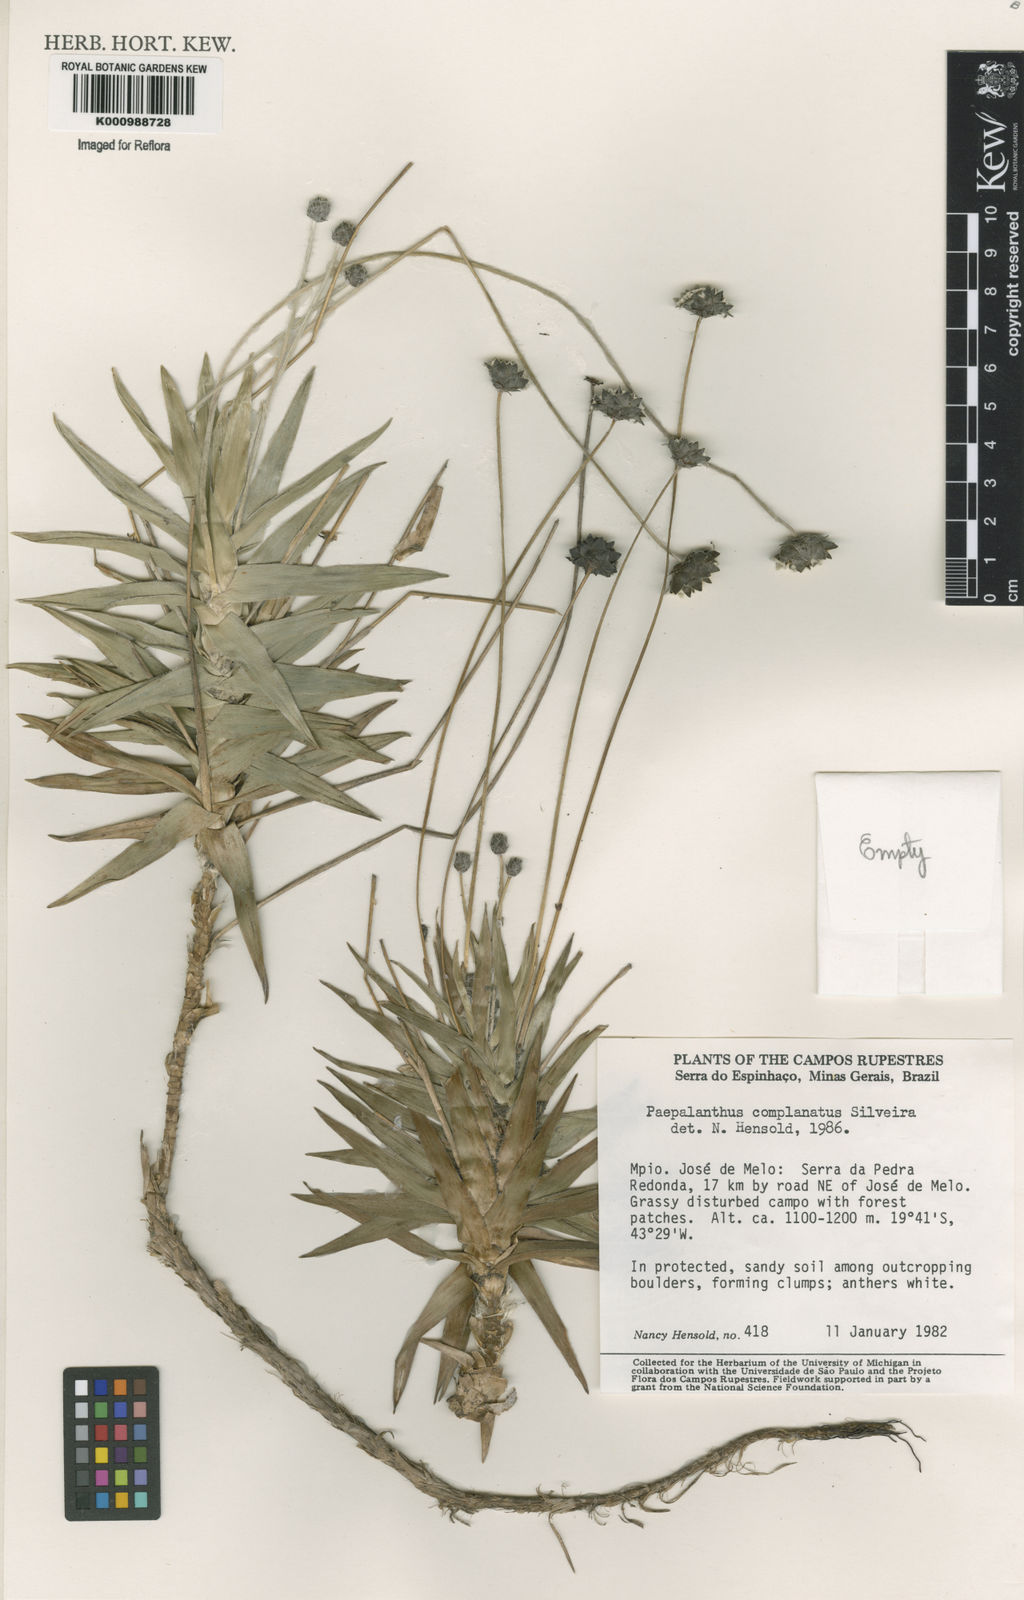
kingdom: Plantae
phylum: Tracheophyta
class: Liliopsida
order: Poales
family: Eriocaulaceae
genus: Paepalanthus
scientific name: Paepalanthus complanatus
